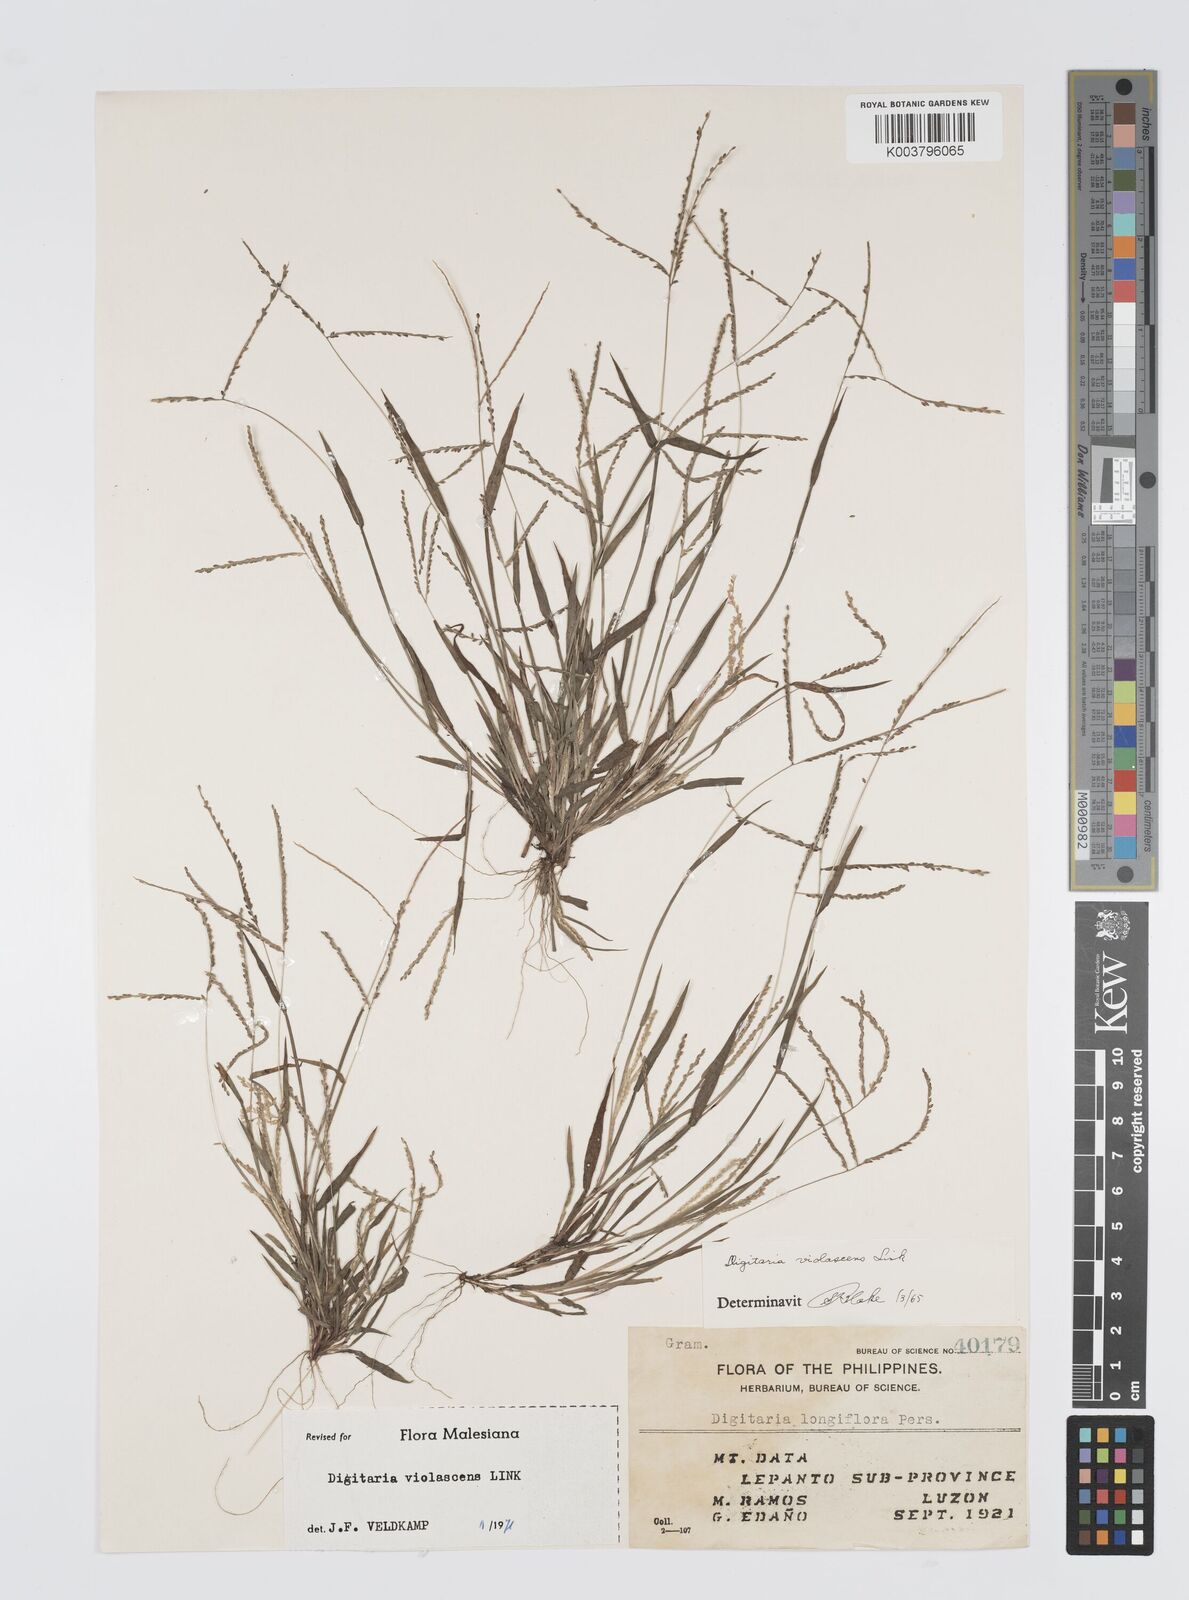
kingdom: Plantae
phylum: Tracheophyta
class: Liliopsida
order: Poales
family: Poaceae
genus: Digitaria
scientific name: Digitaria violascens
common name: Violet crabgrass
